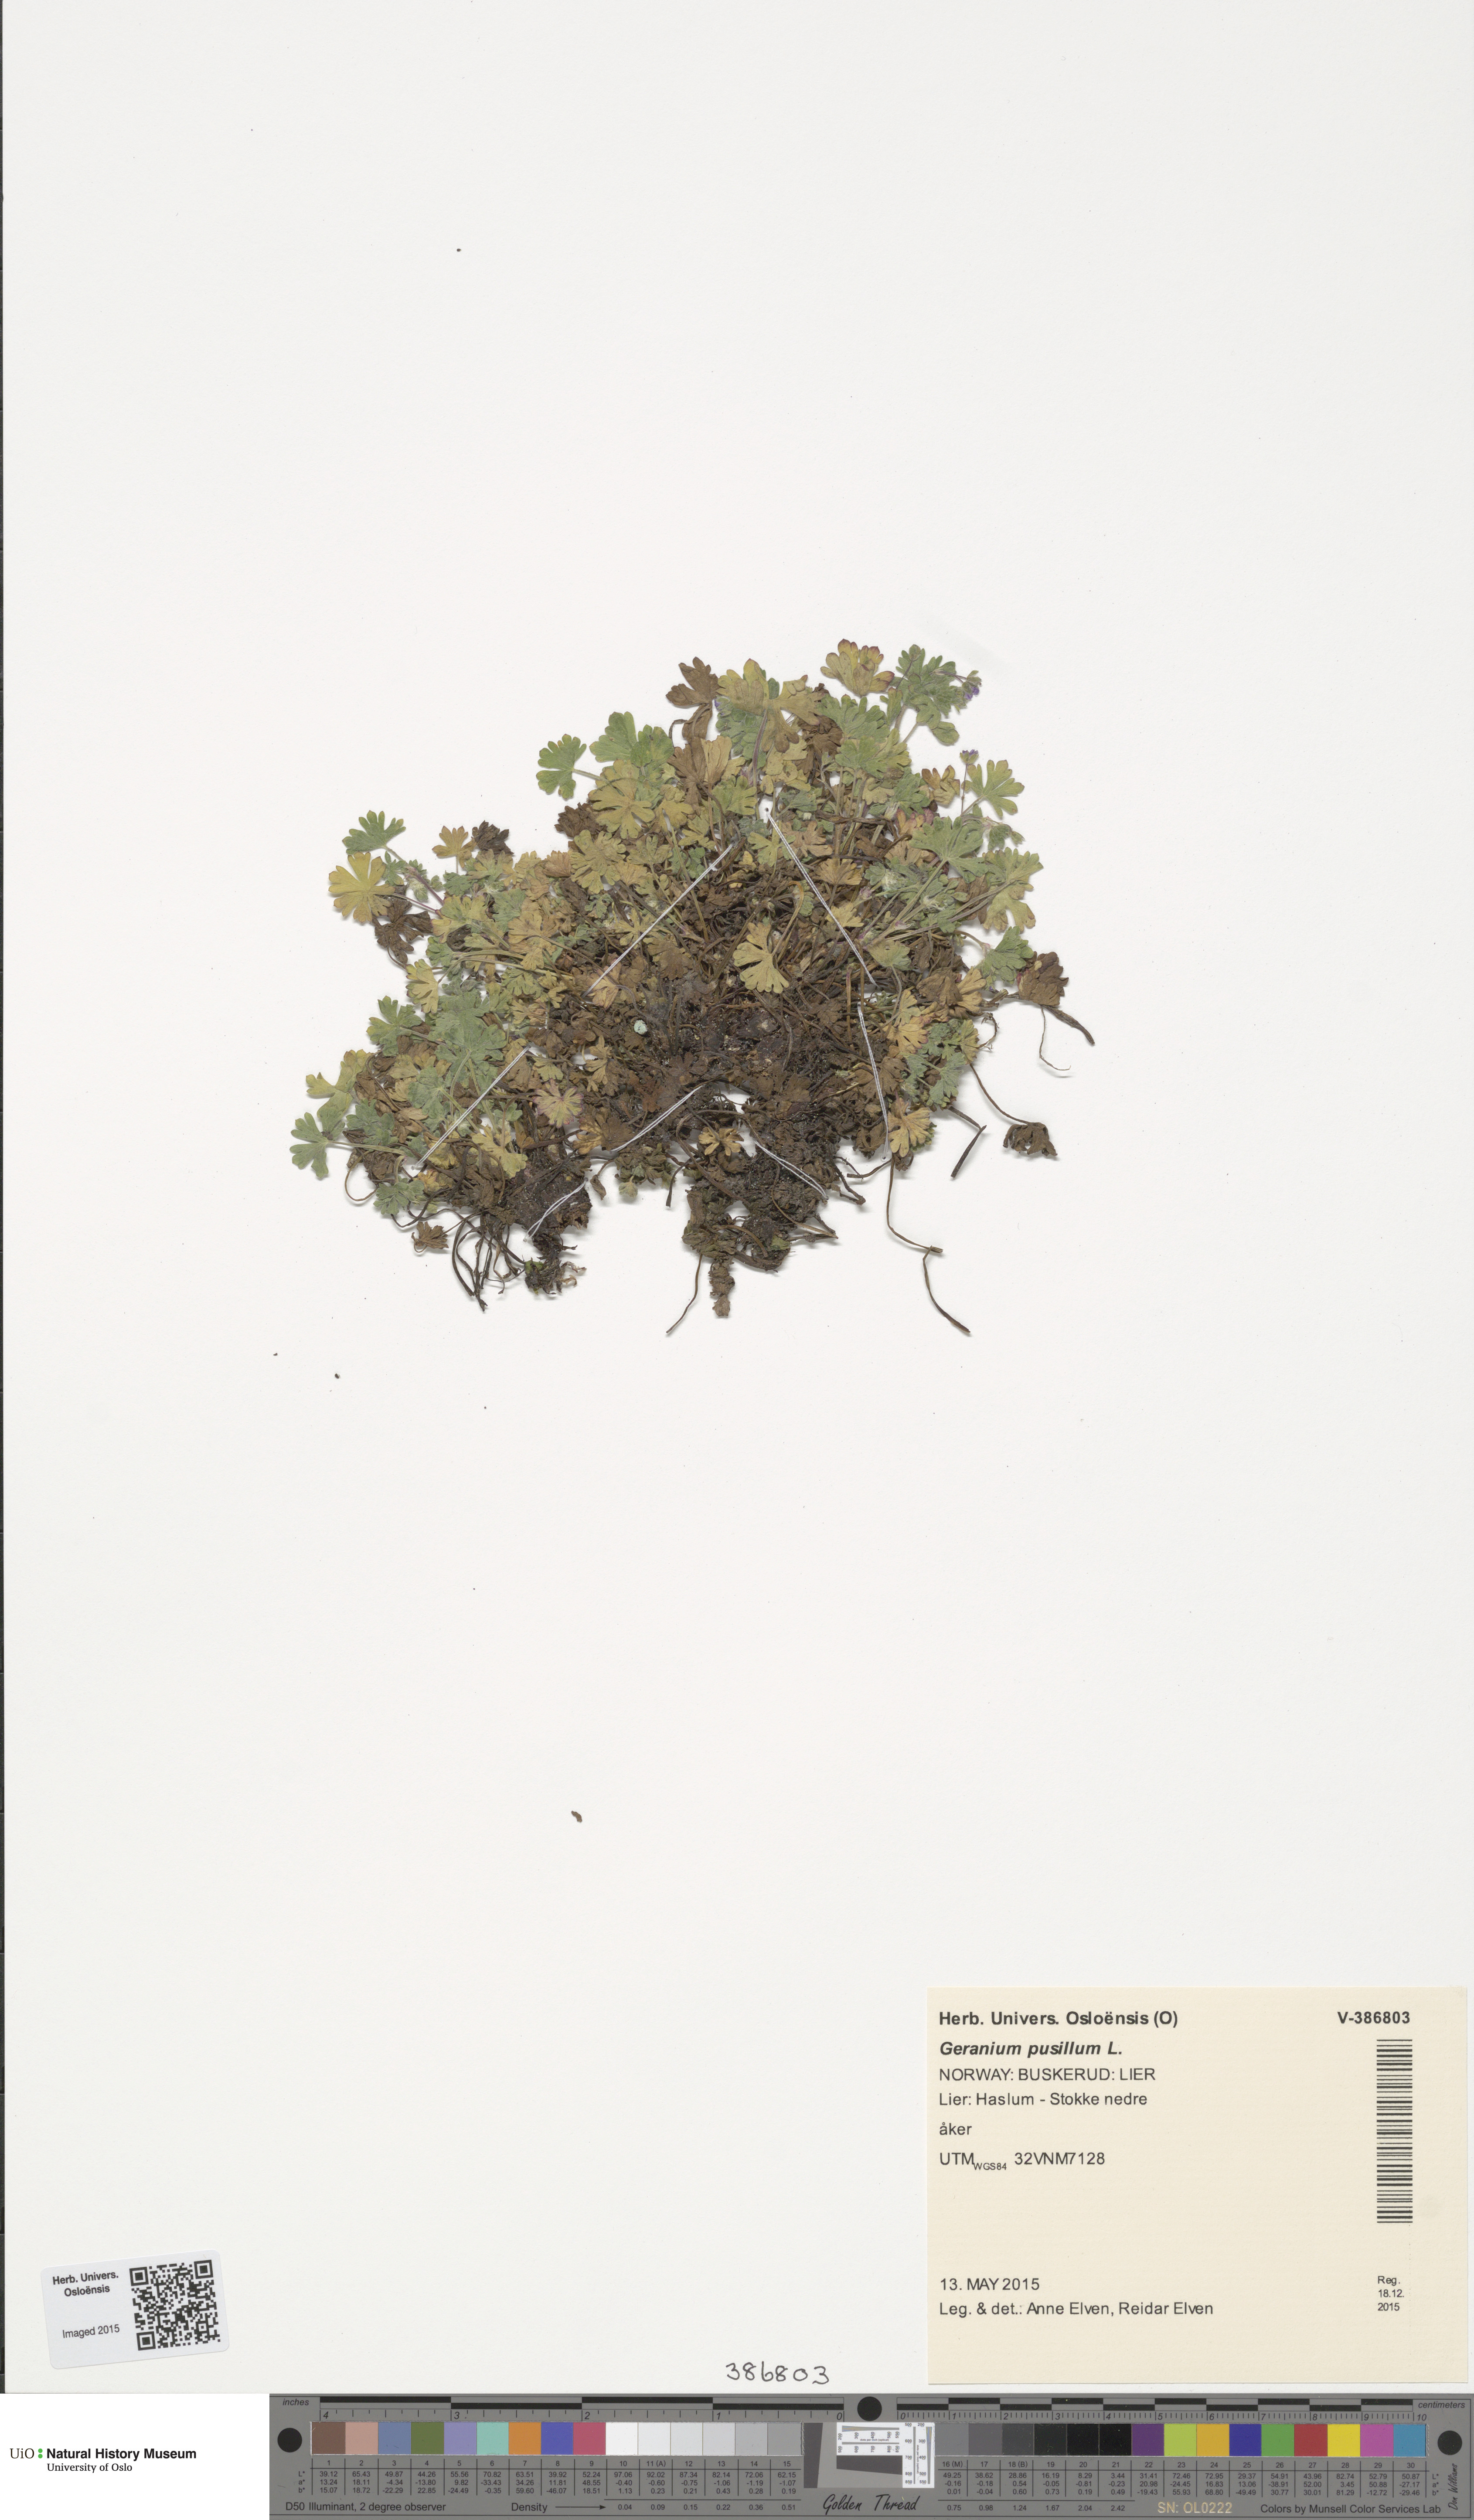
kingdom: Plantae
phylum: Tracheophyta
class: Magnoliopsida
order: Geraniales
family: Geraniaceae
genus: Geranium
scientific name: Geranium pusillum
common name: Small geranium
